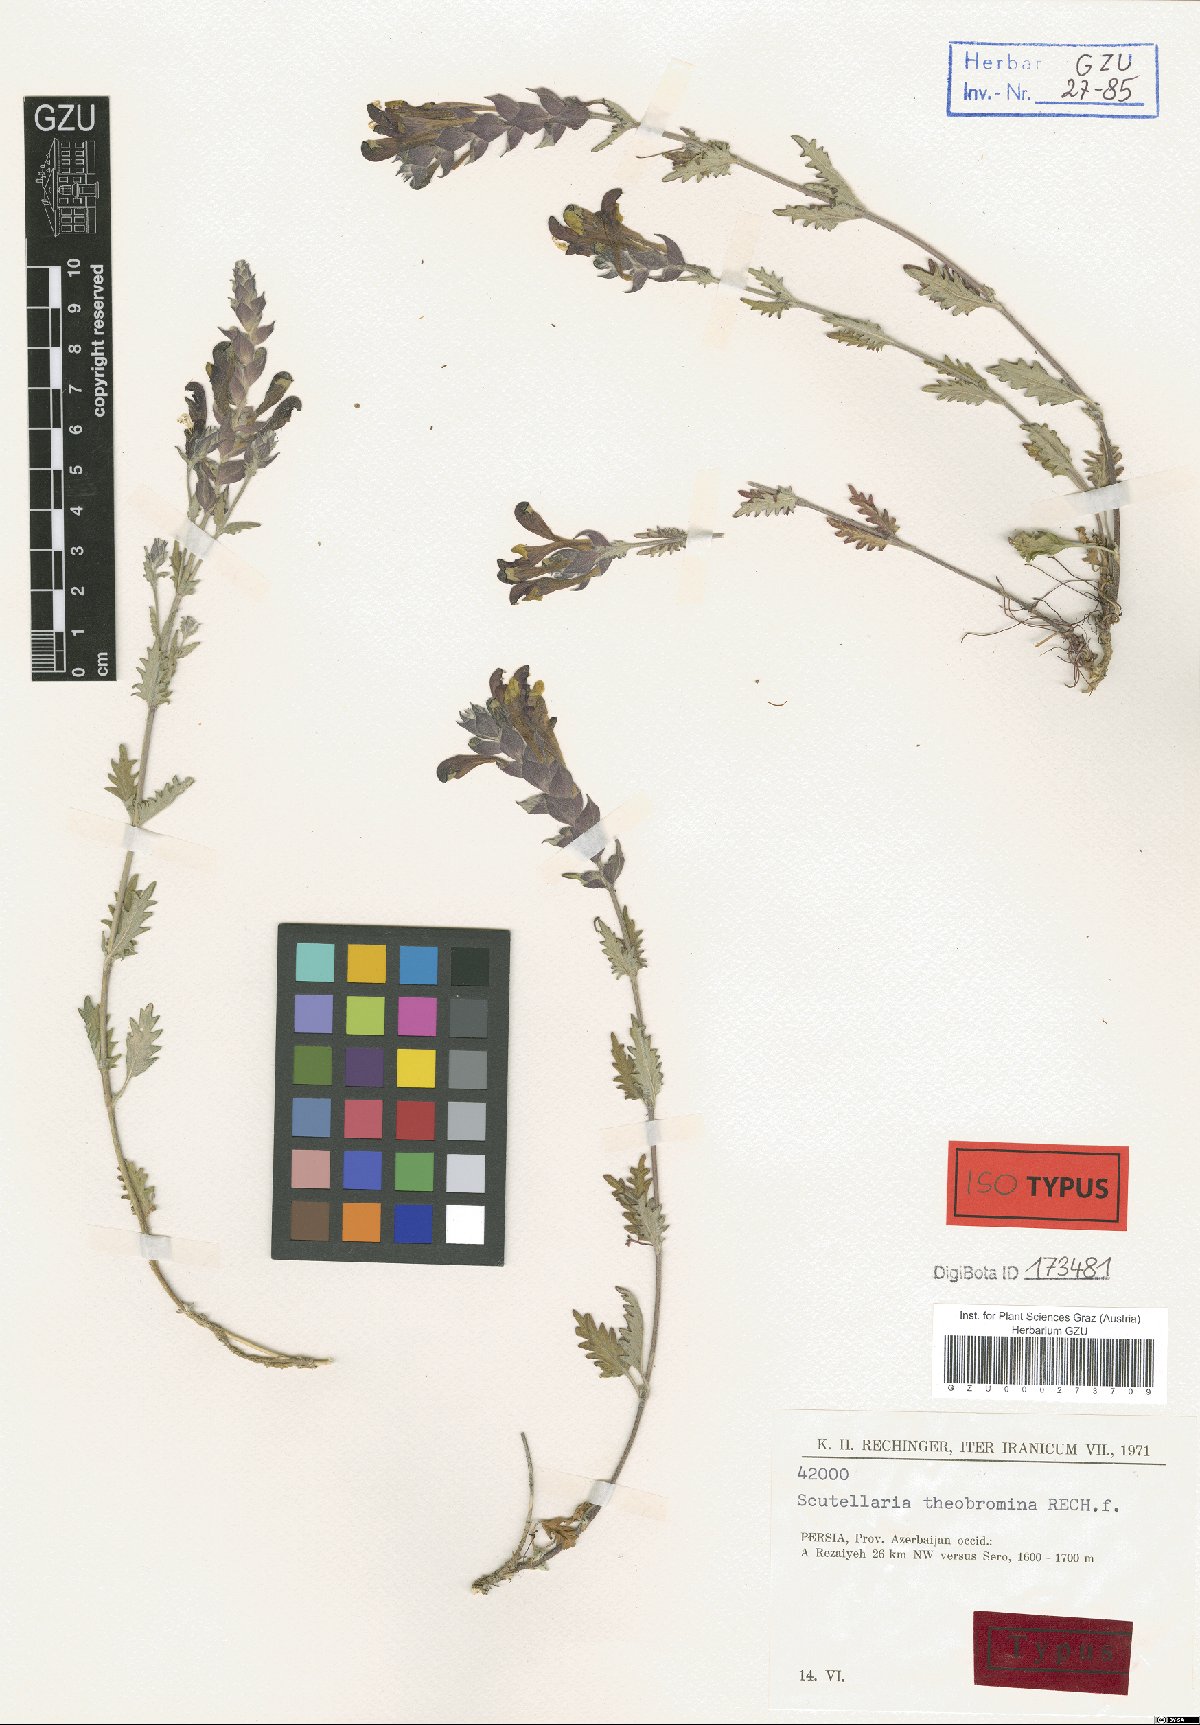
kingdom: Plantae
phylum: Tracheophyta
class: Magnoliopsida
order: Lamiales
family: Lamiaceae
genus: Scutellaria
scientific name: Scutellaria theobromina
